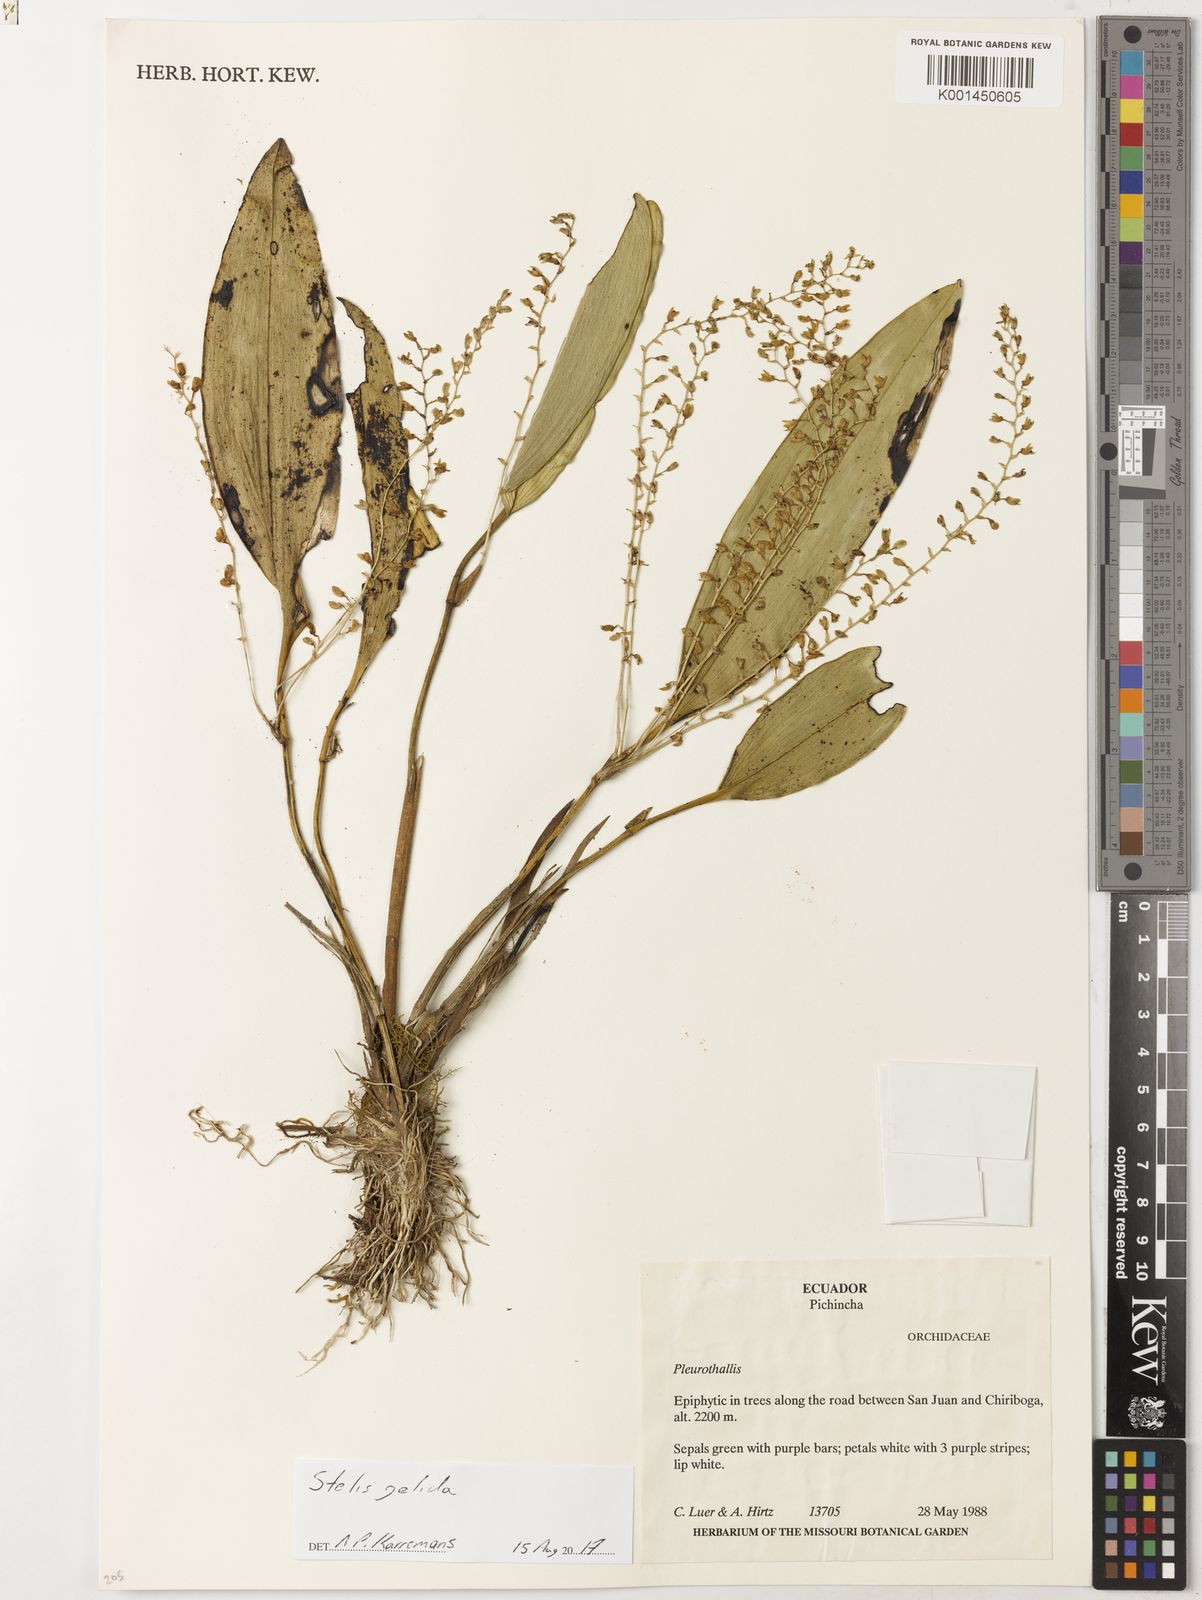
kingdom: Plantae
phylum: Tracheophyta
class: Liliopsida
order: Asparagales
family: Orchidaceae
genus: Stelis
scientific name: Stelis gelida
